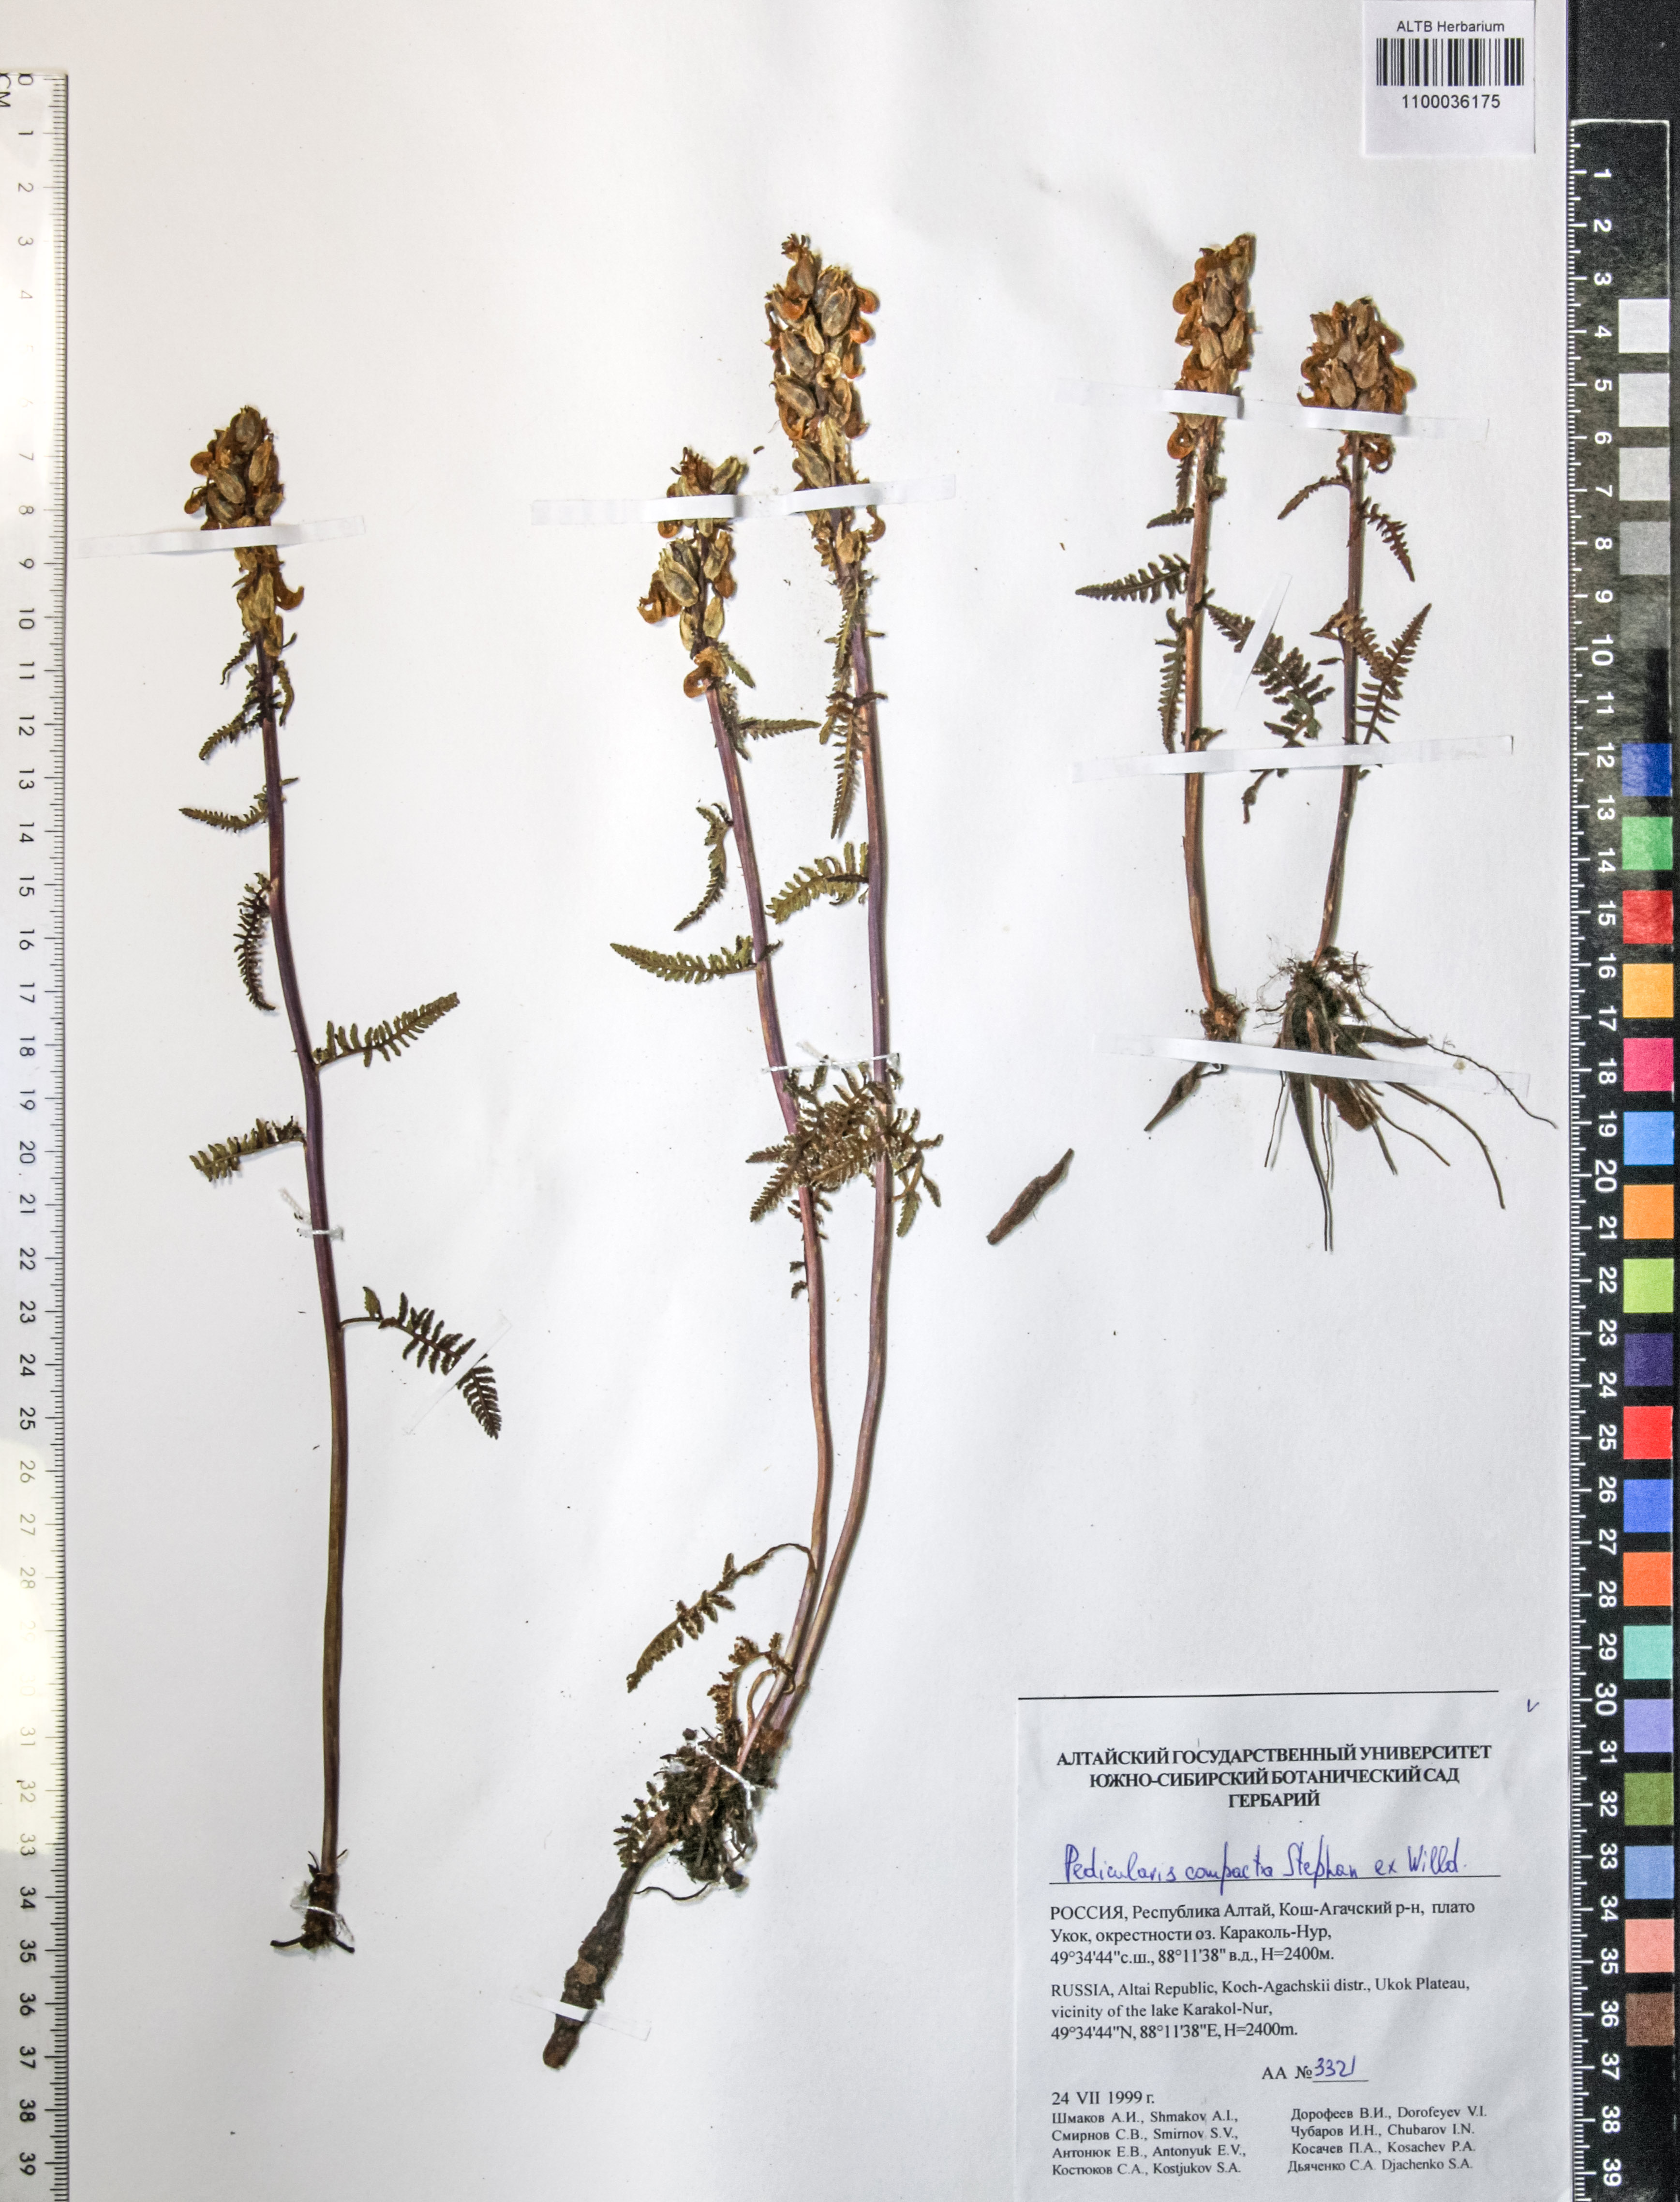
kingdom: Plantae
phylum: Tracheophyta
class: Magnoliopsida
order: Lamiales
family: Orobanchaceae
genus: Pedicularis
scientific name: Pedicularis compacta
